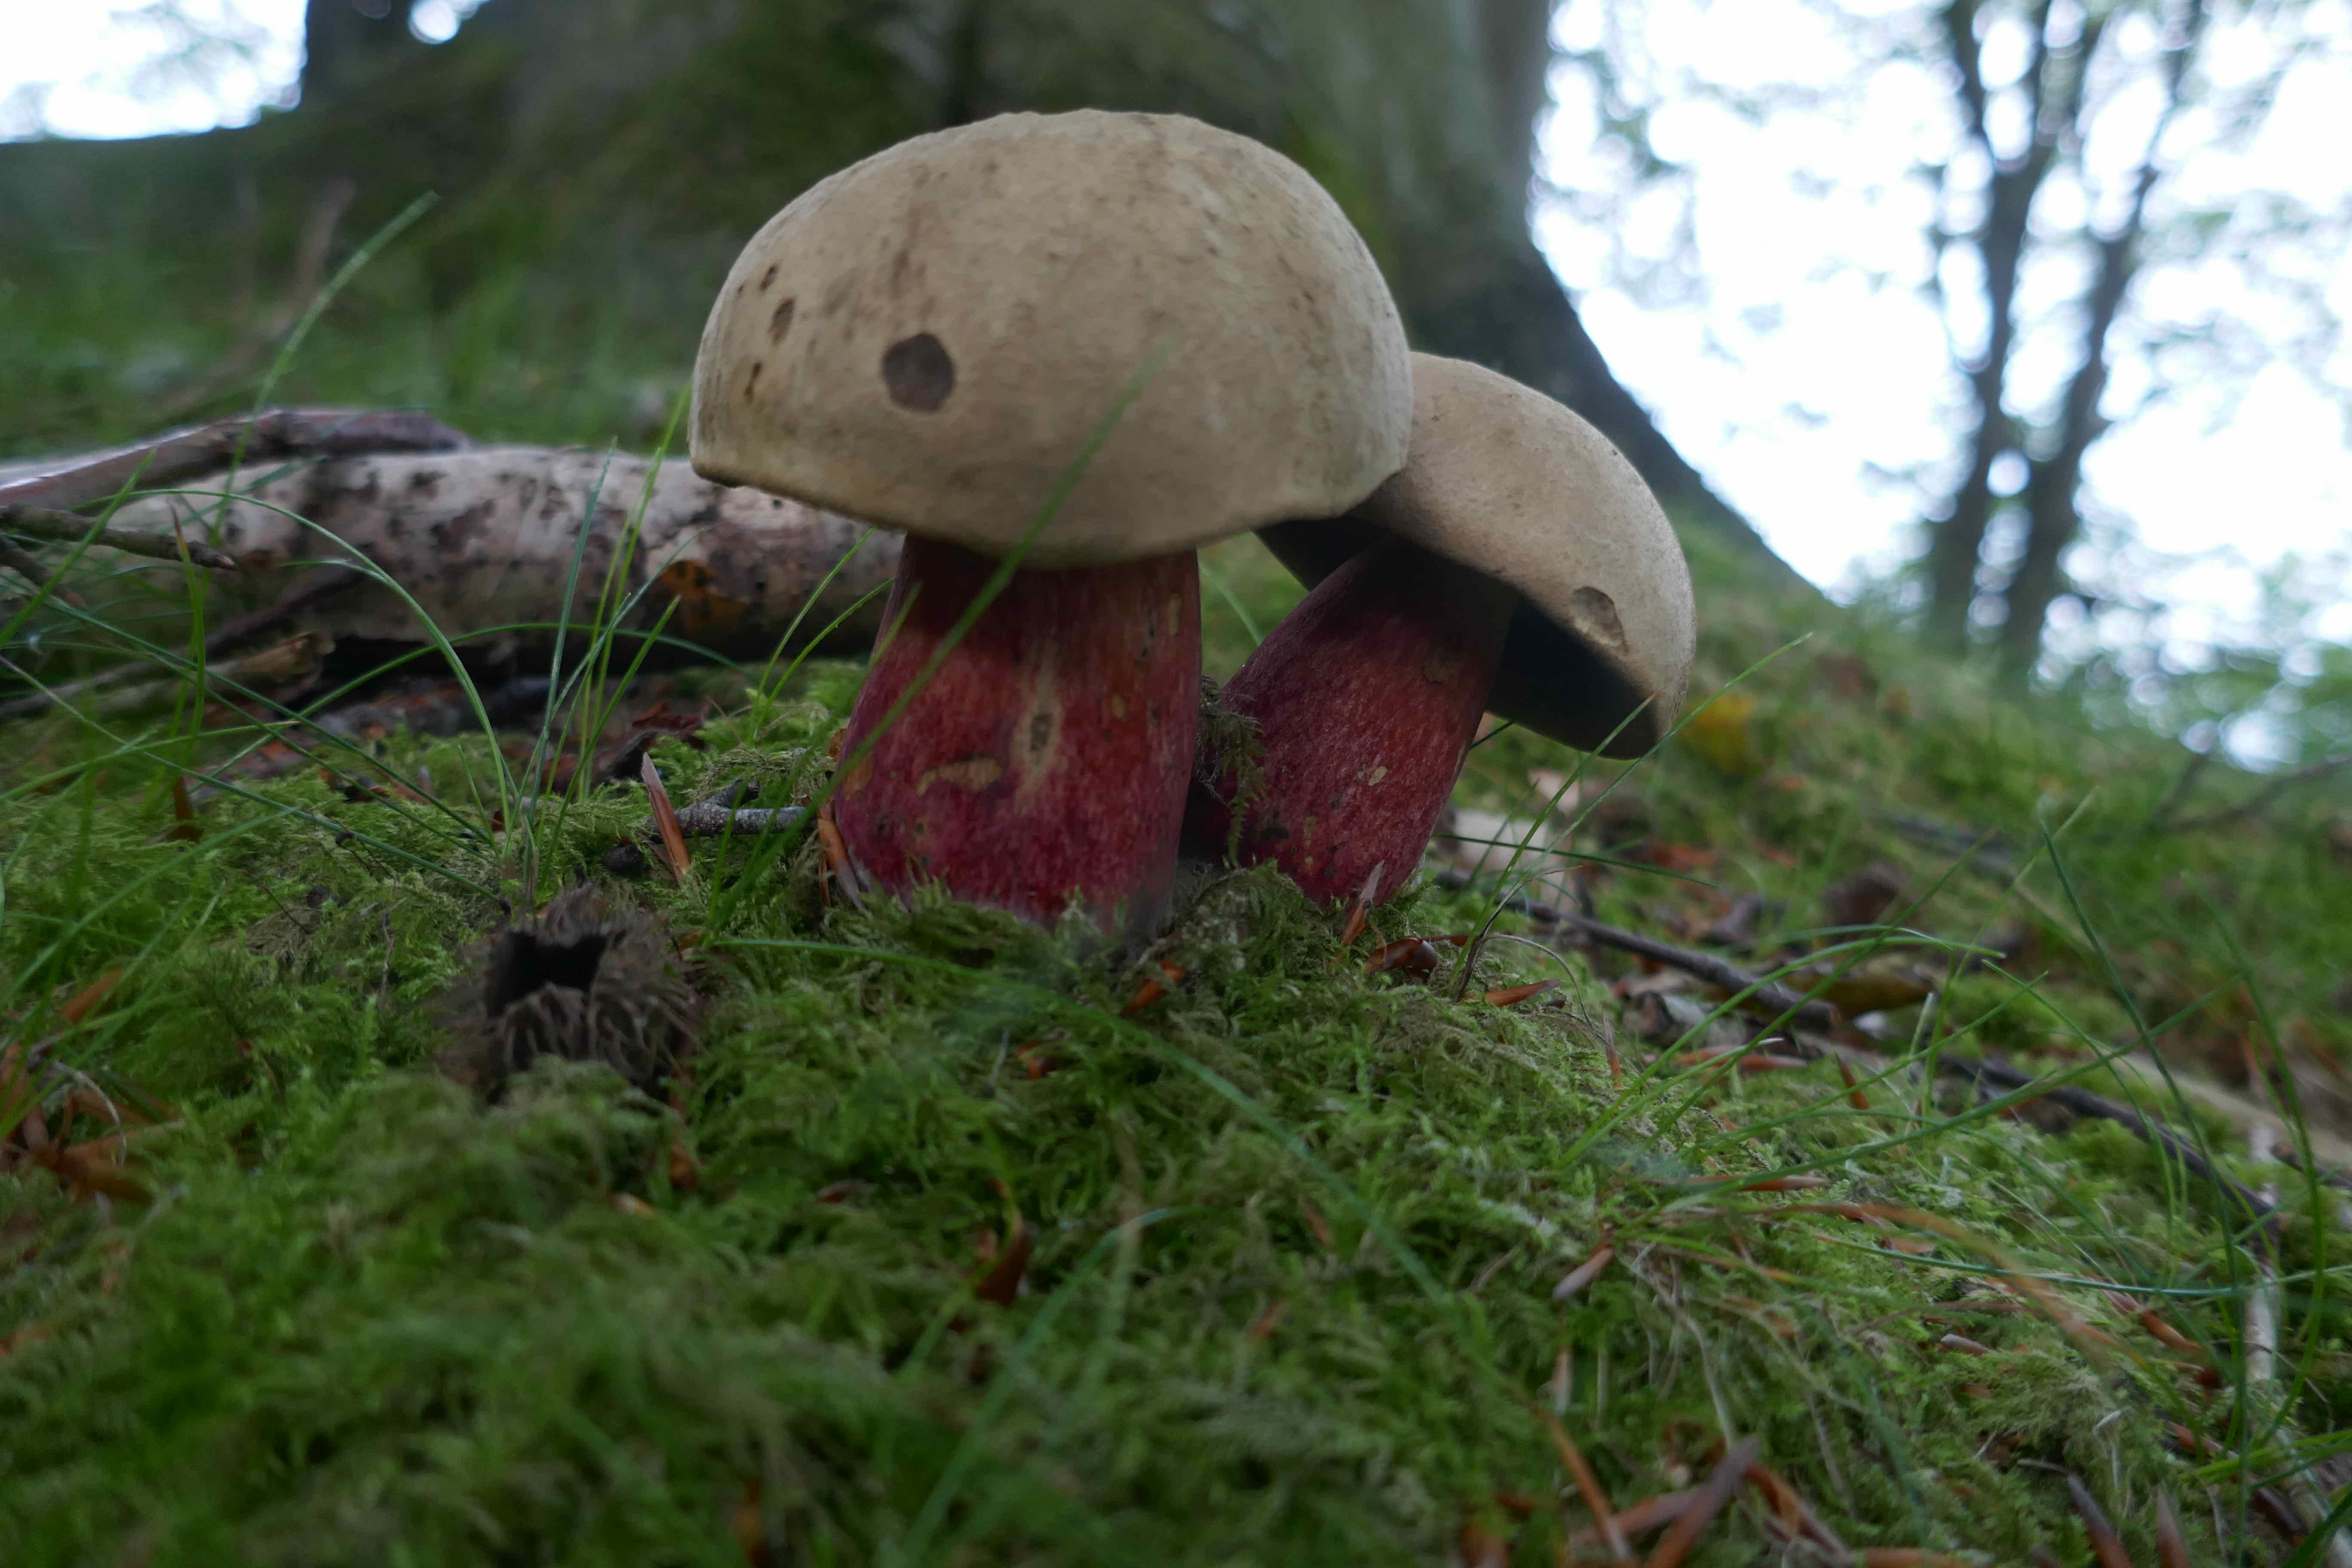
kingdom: Fungi
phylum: Basidiomycota
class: Agaricomycetes
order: Boletales
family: Boletaceae
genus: Caloboletus
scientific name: Caloboletus calopus
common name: skønfodet rørhat
